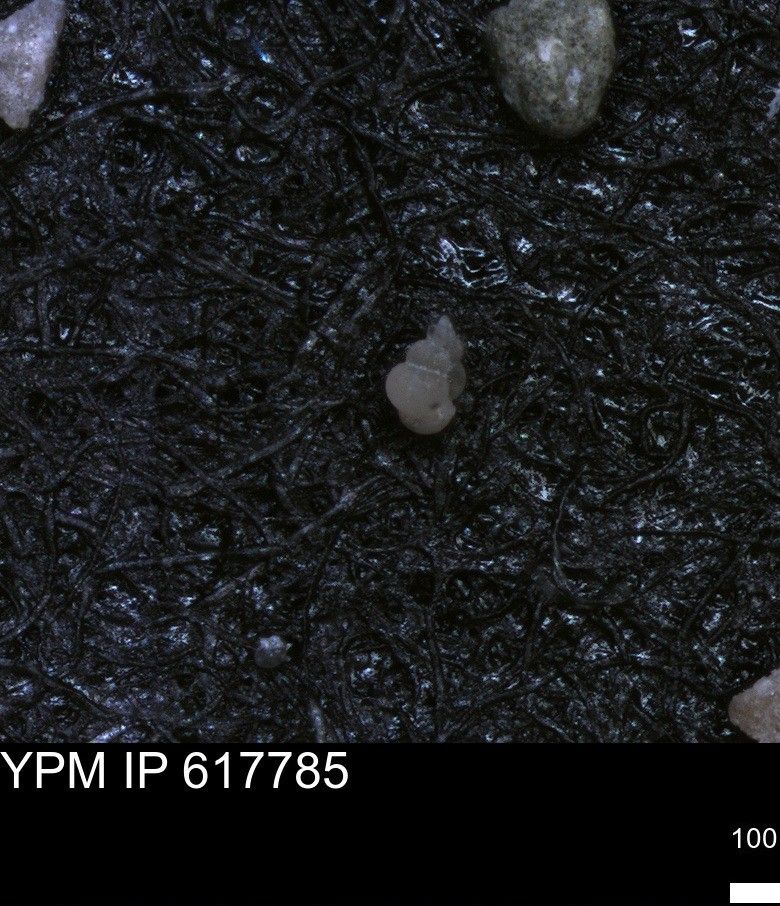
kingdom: Chromista
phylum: Foraminifera
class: Globothalamea
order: Rotaliida
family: Heterohelicidae
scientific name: Heterohelicidae
